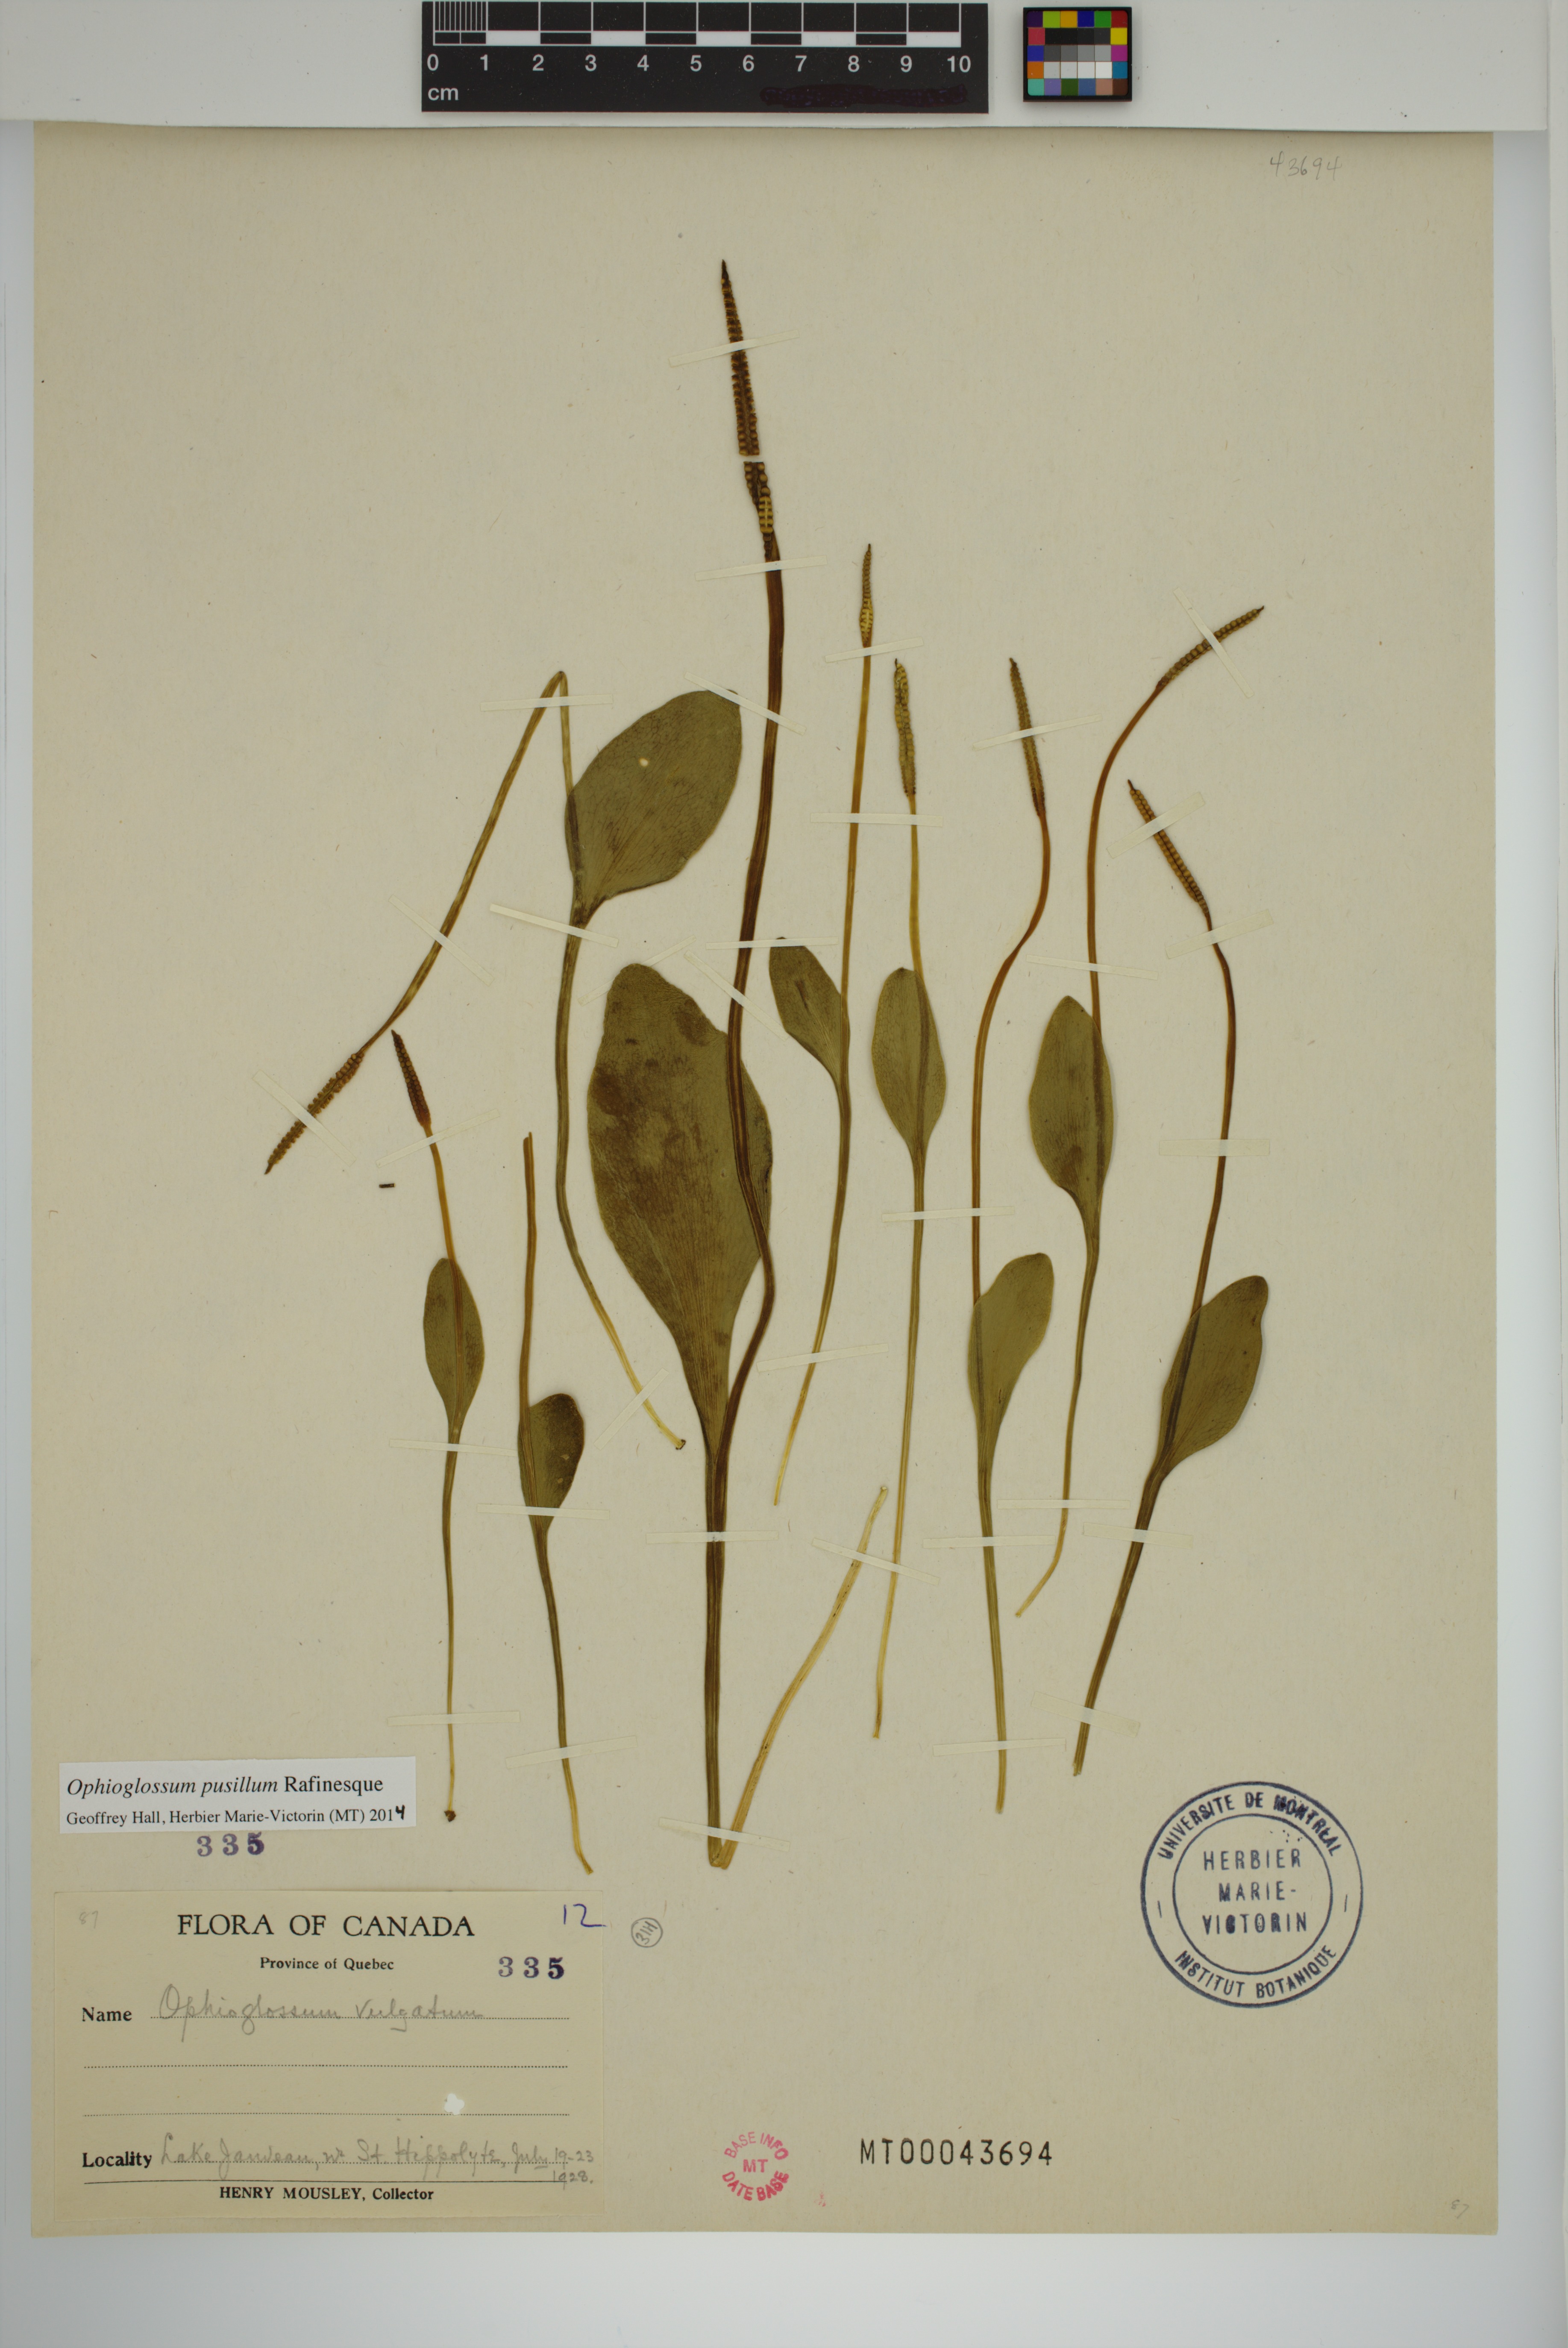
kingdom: Plantae
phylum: Tracheophyta
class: Polypodiopsida
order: Ophioglossales
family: Ophioglossaceae
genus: Ophioglossum
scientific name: Ophioglossum pusillum
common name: Northern adder's-tongue
